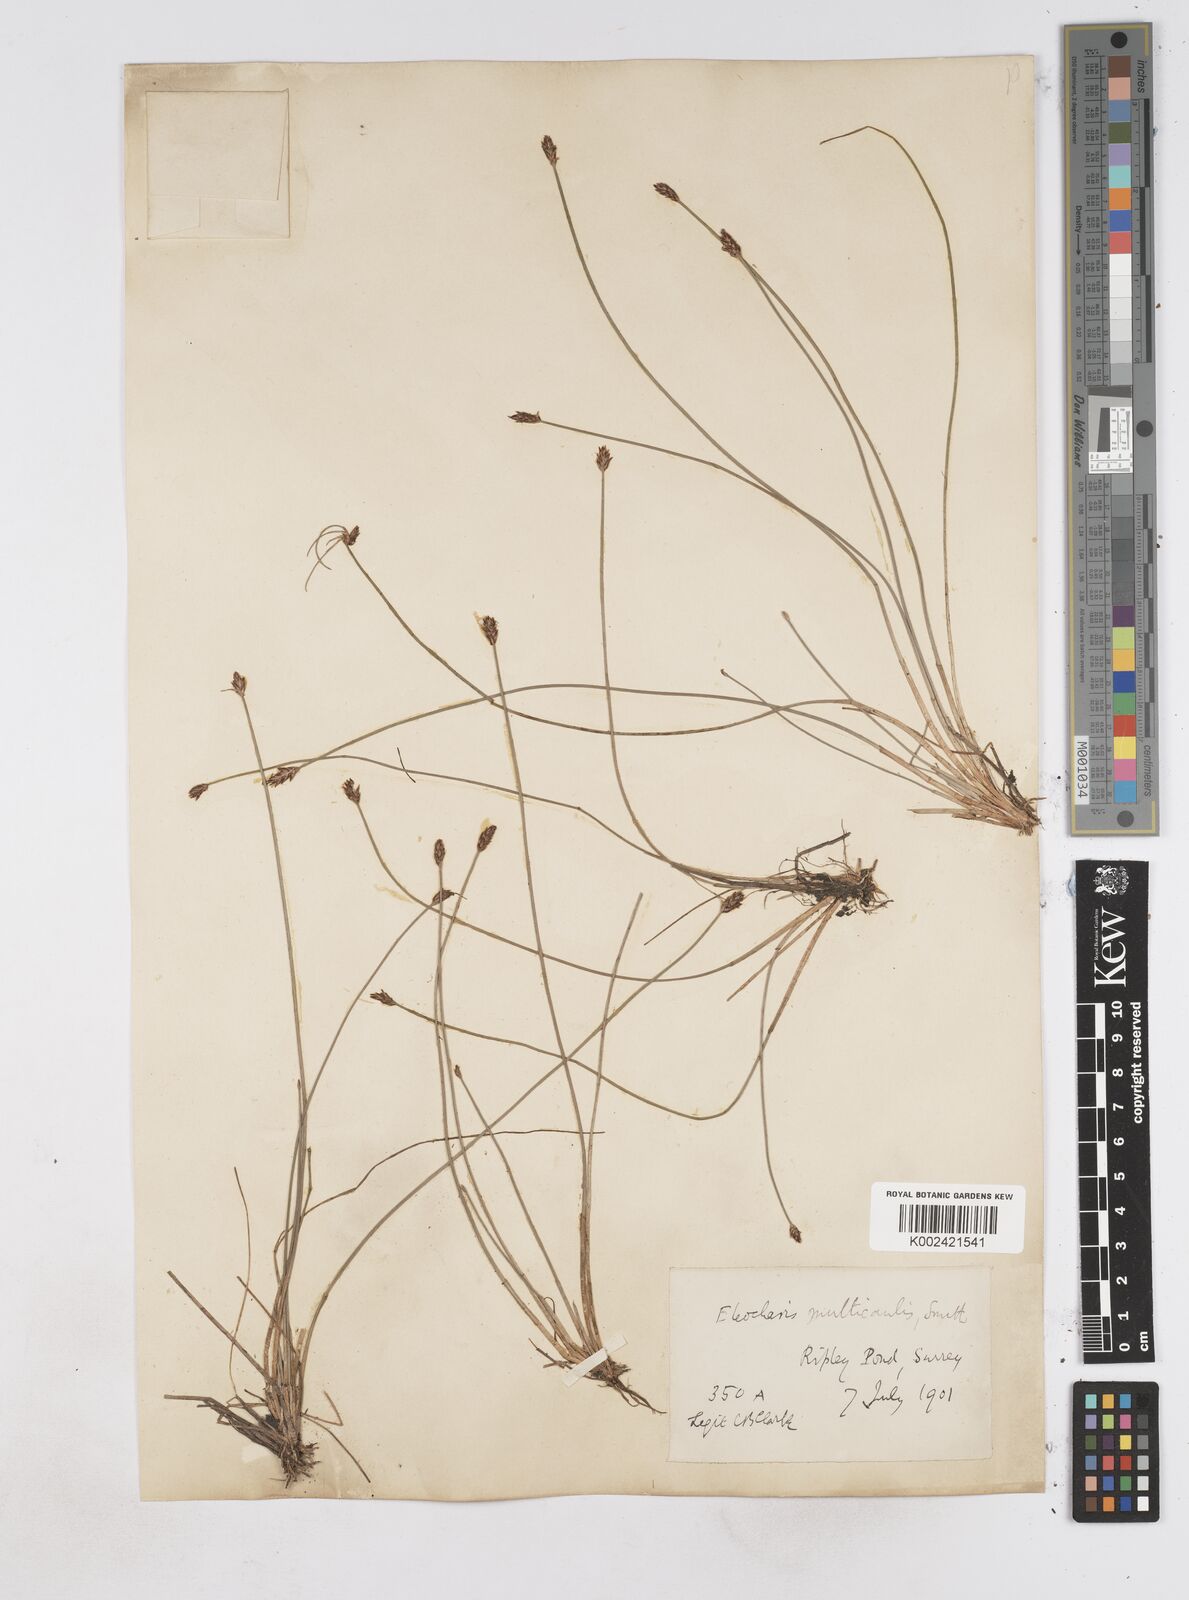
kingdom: Plantae
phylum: Tracheophyta
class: Liliopsida
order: Poales
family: Cyperaceae
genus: Eleocharis
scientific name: Eleocharis multicaulis
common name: Many-stalked spike-rush
